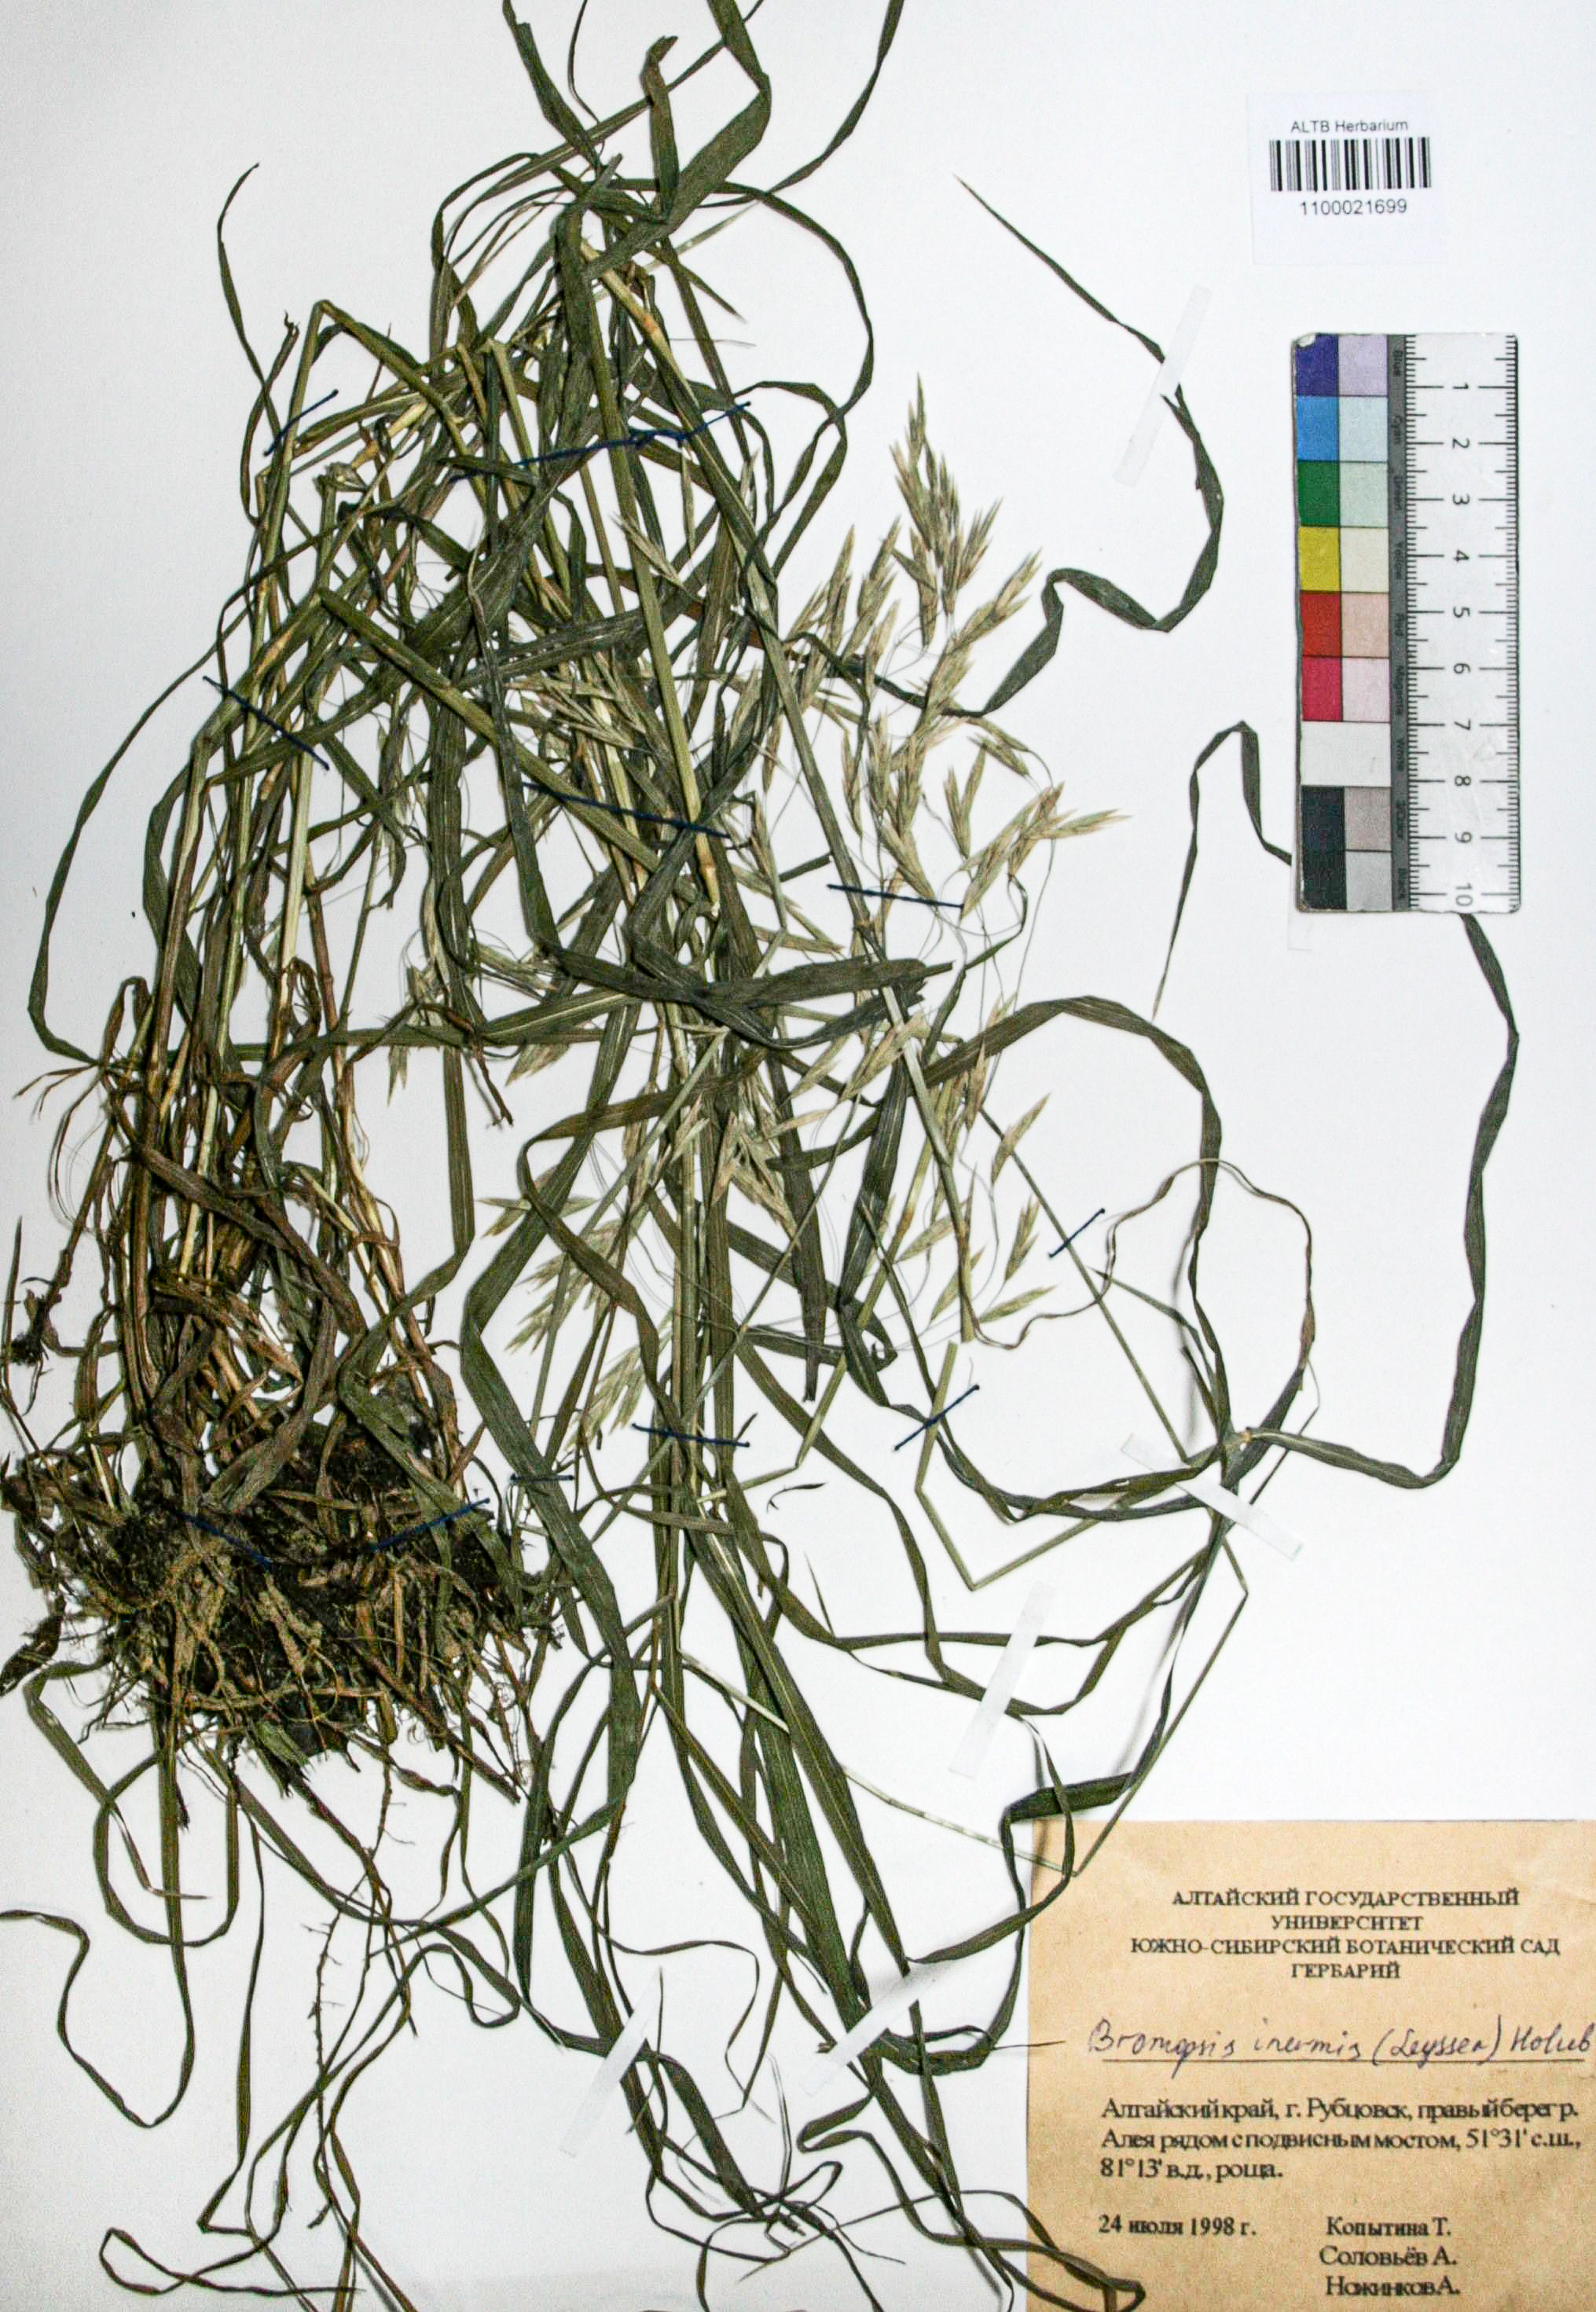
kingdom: Plantae
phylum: Tracheophyta
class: Liliopsida
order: Poales
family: Poaceae
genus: Bromus
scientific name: Bromus inermis
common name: Smooth brome
